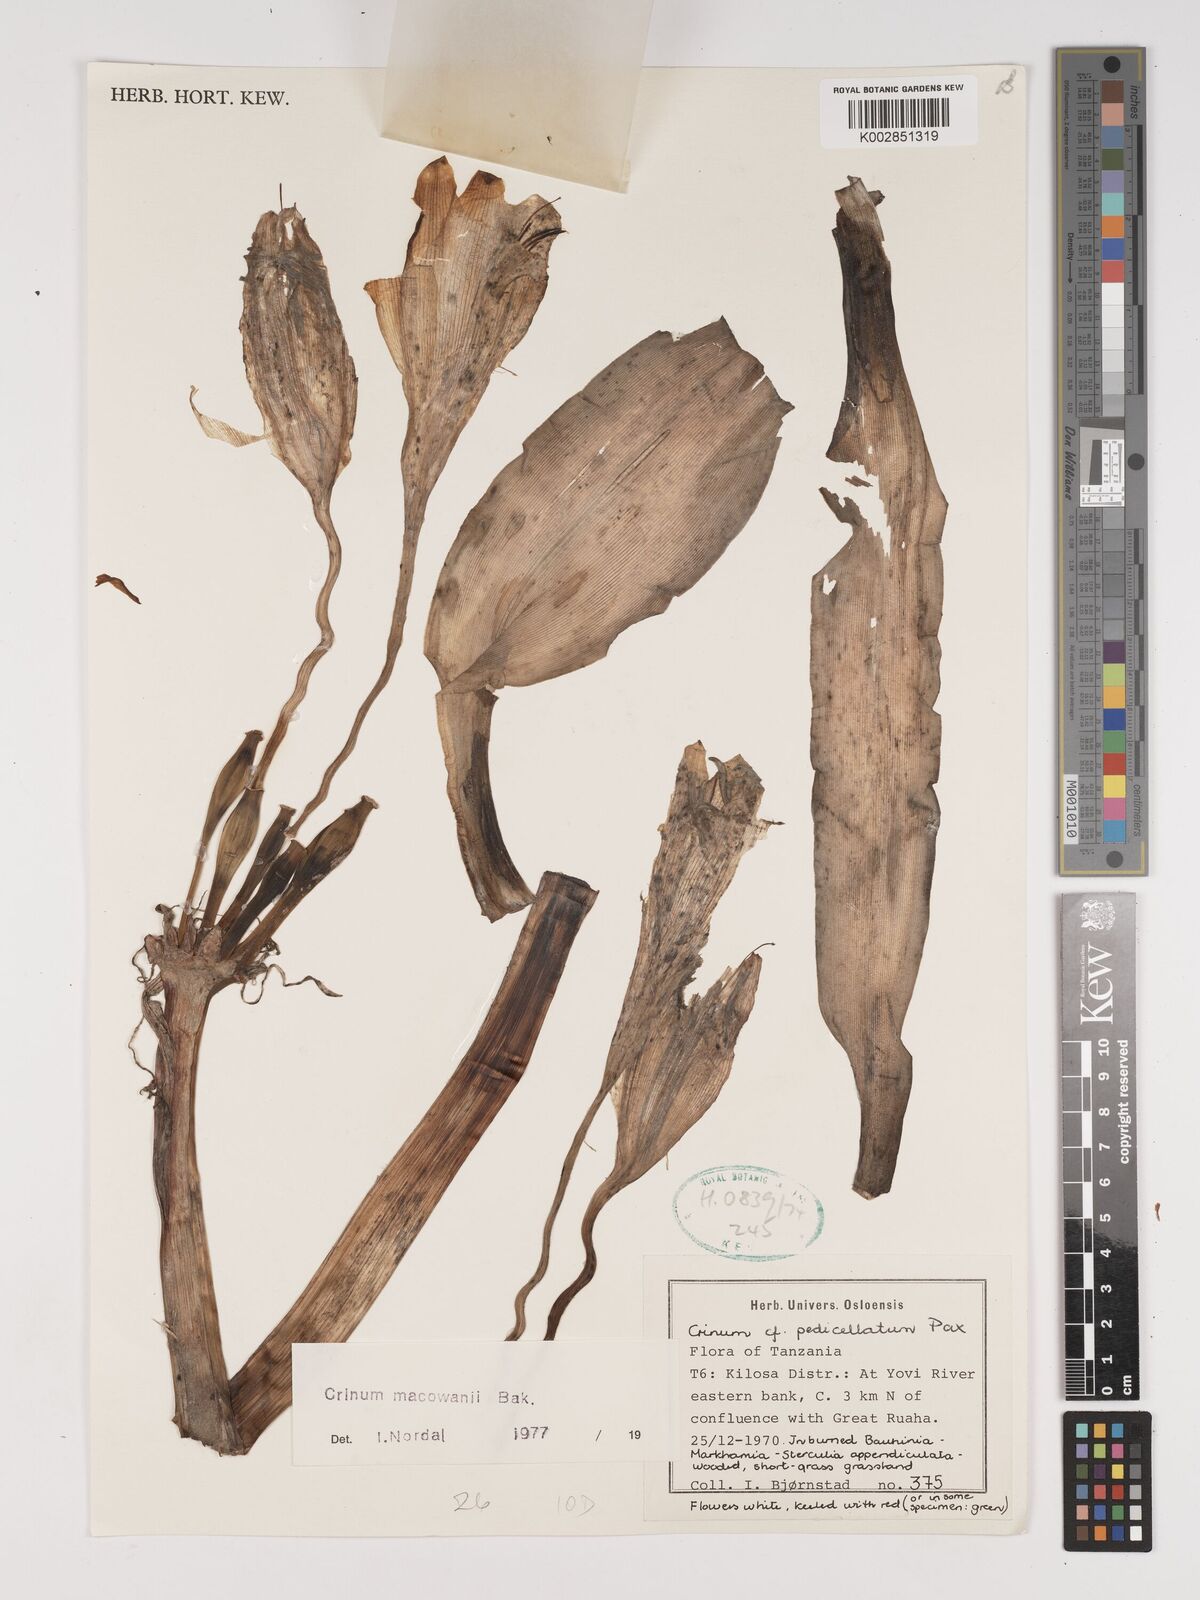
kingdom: Plantae
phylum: Tracheophyta
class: Liliopsida
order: Asparagales
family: Amaryllidaceae
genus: Crinum
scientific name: Crinum macowanii
